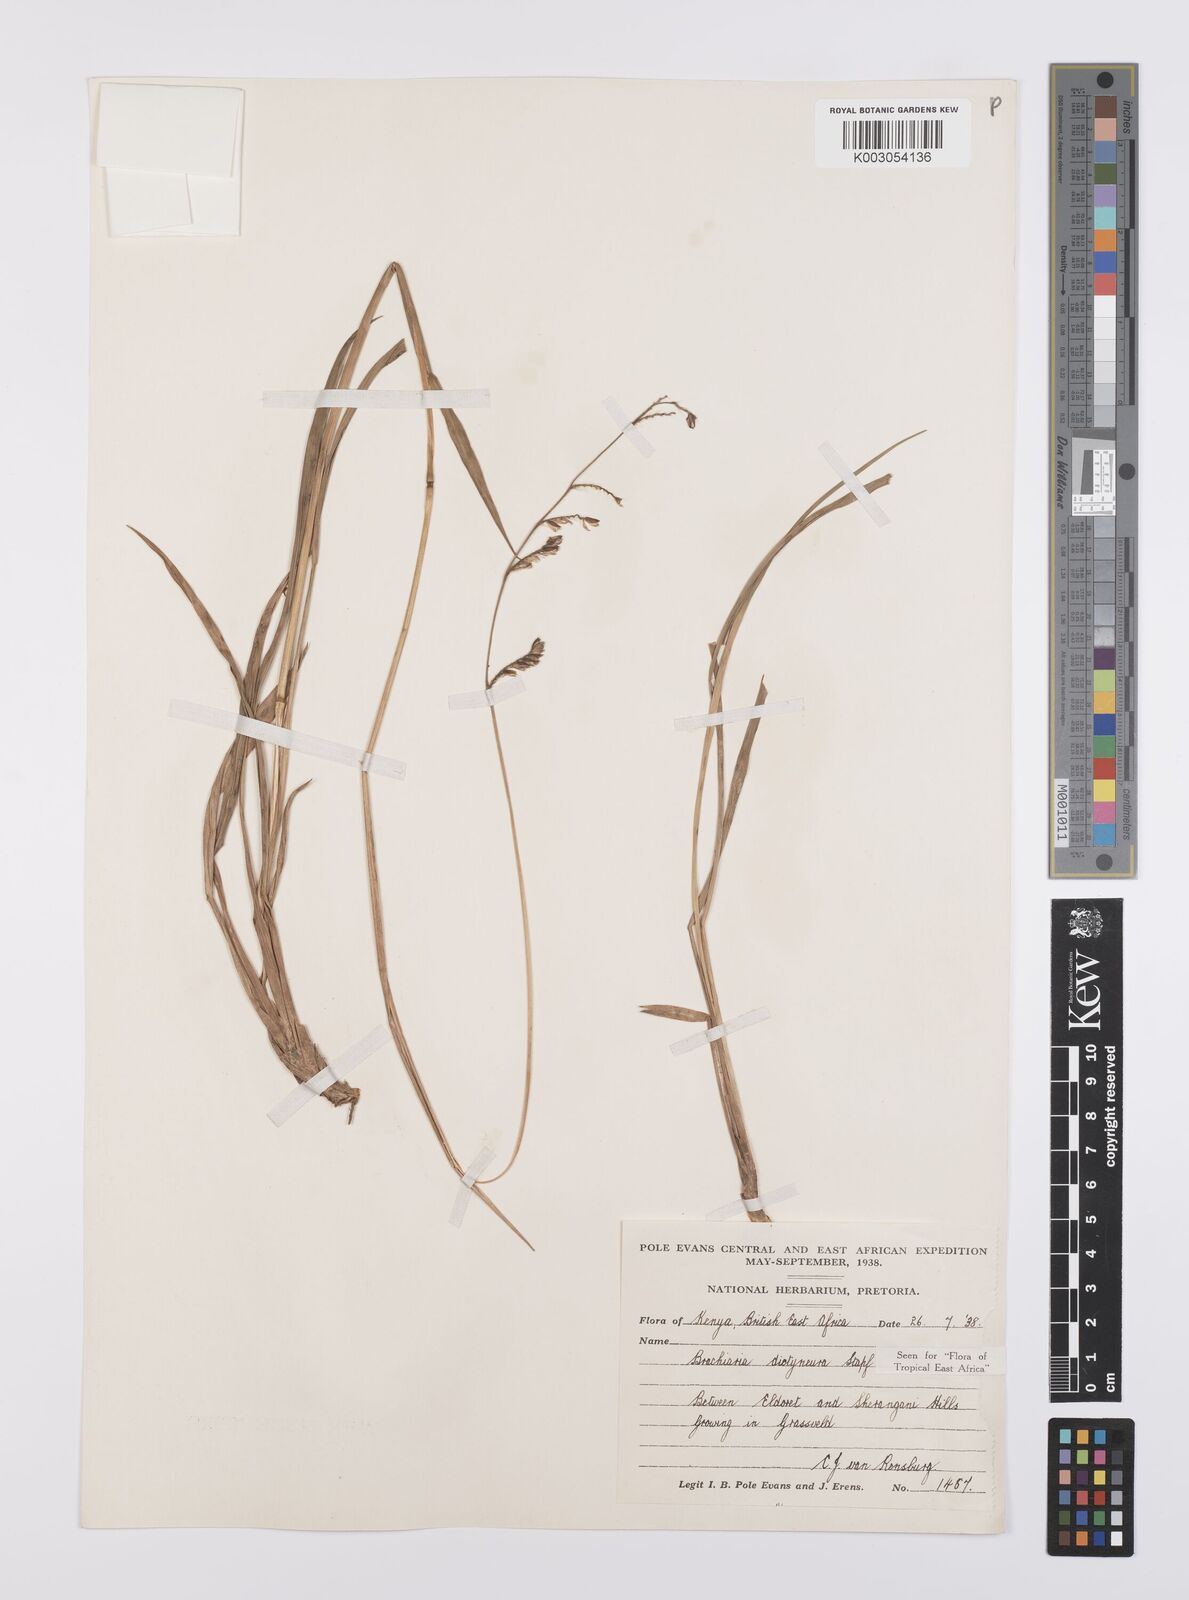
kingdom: Plantae
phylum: Tracheophyta
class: Liliopsida
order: Poales
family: Poaceae
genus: Urochloa
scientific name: Urochloa dictyoneura
